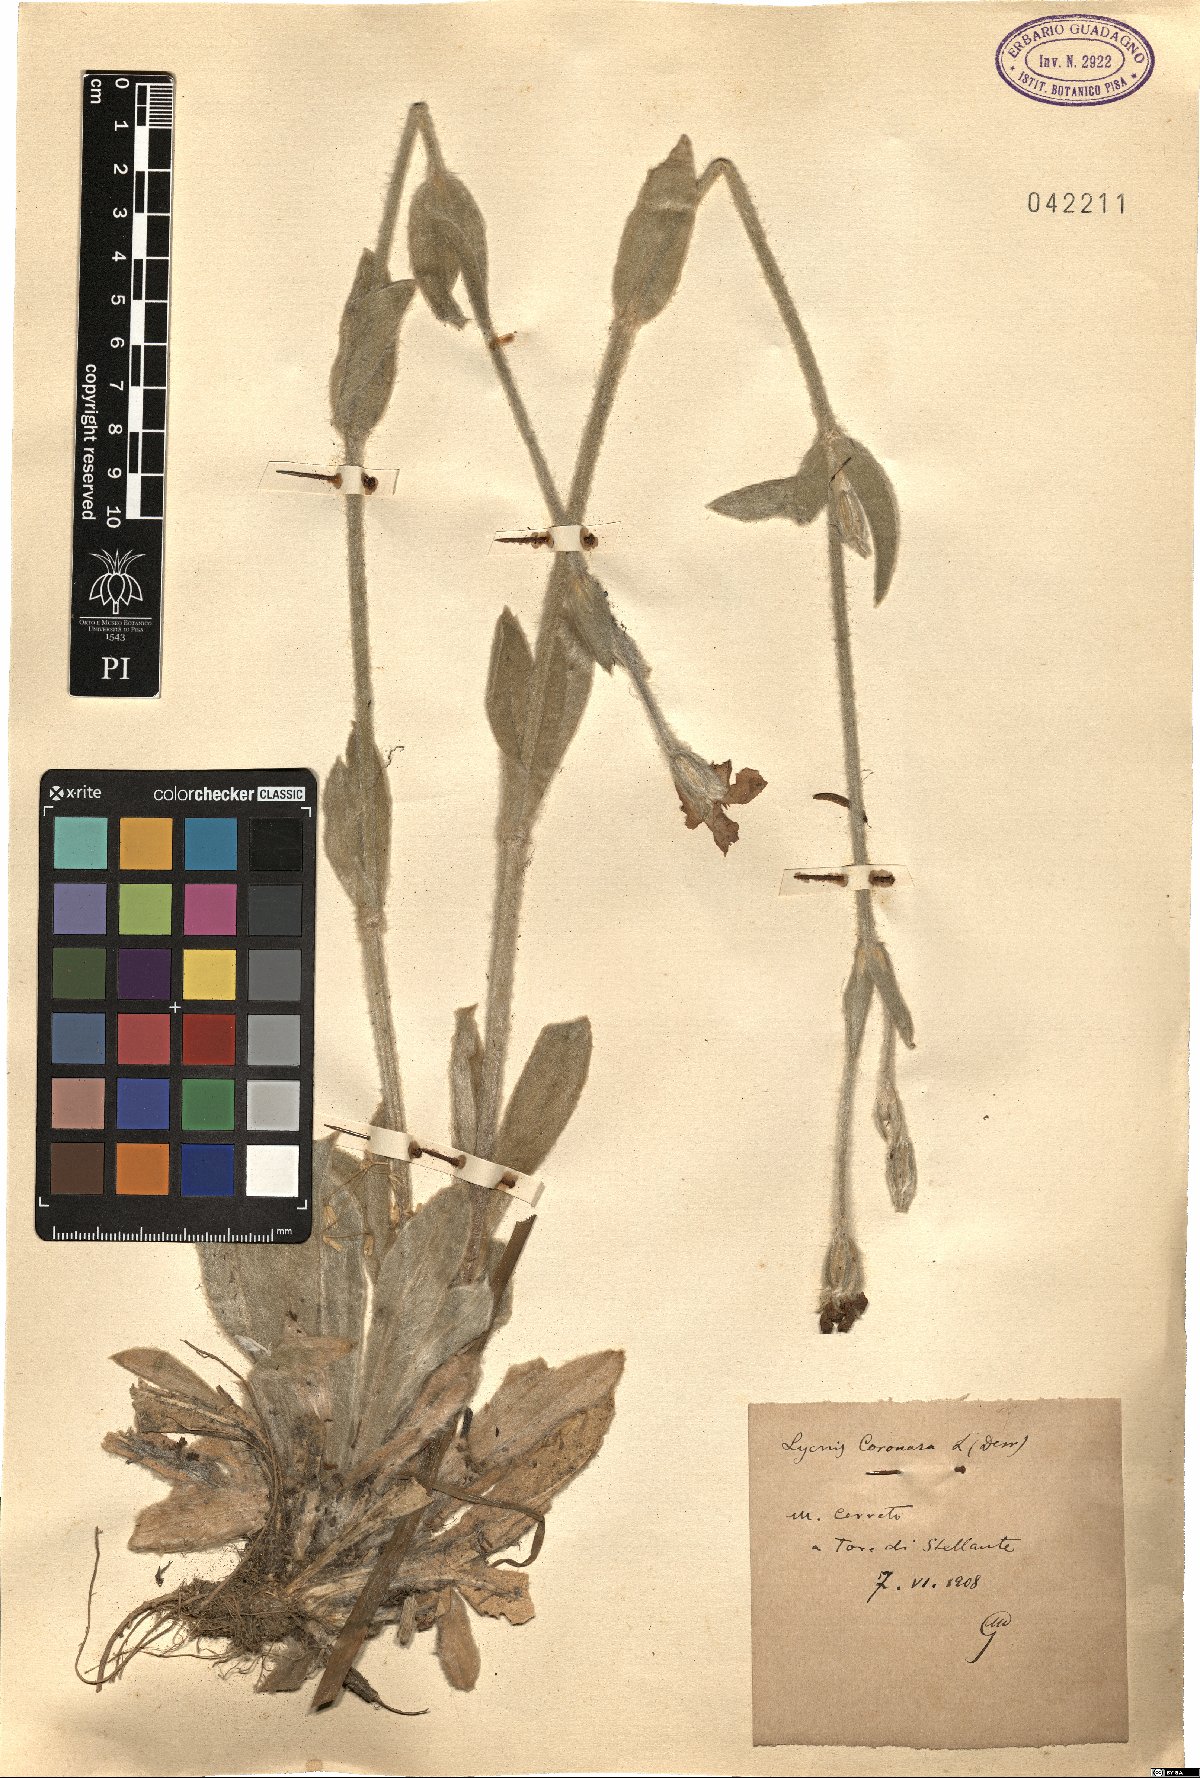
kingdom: Plantae
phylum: Tracheophyta
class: Magnoliopsida
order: Caryophyllales
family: Caryophyllaceae
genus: Silene
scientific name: Silene coronaria
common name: Rose campion
